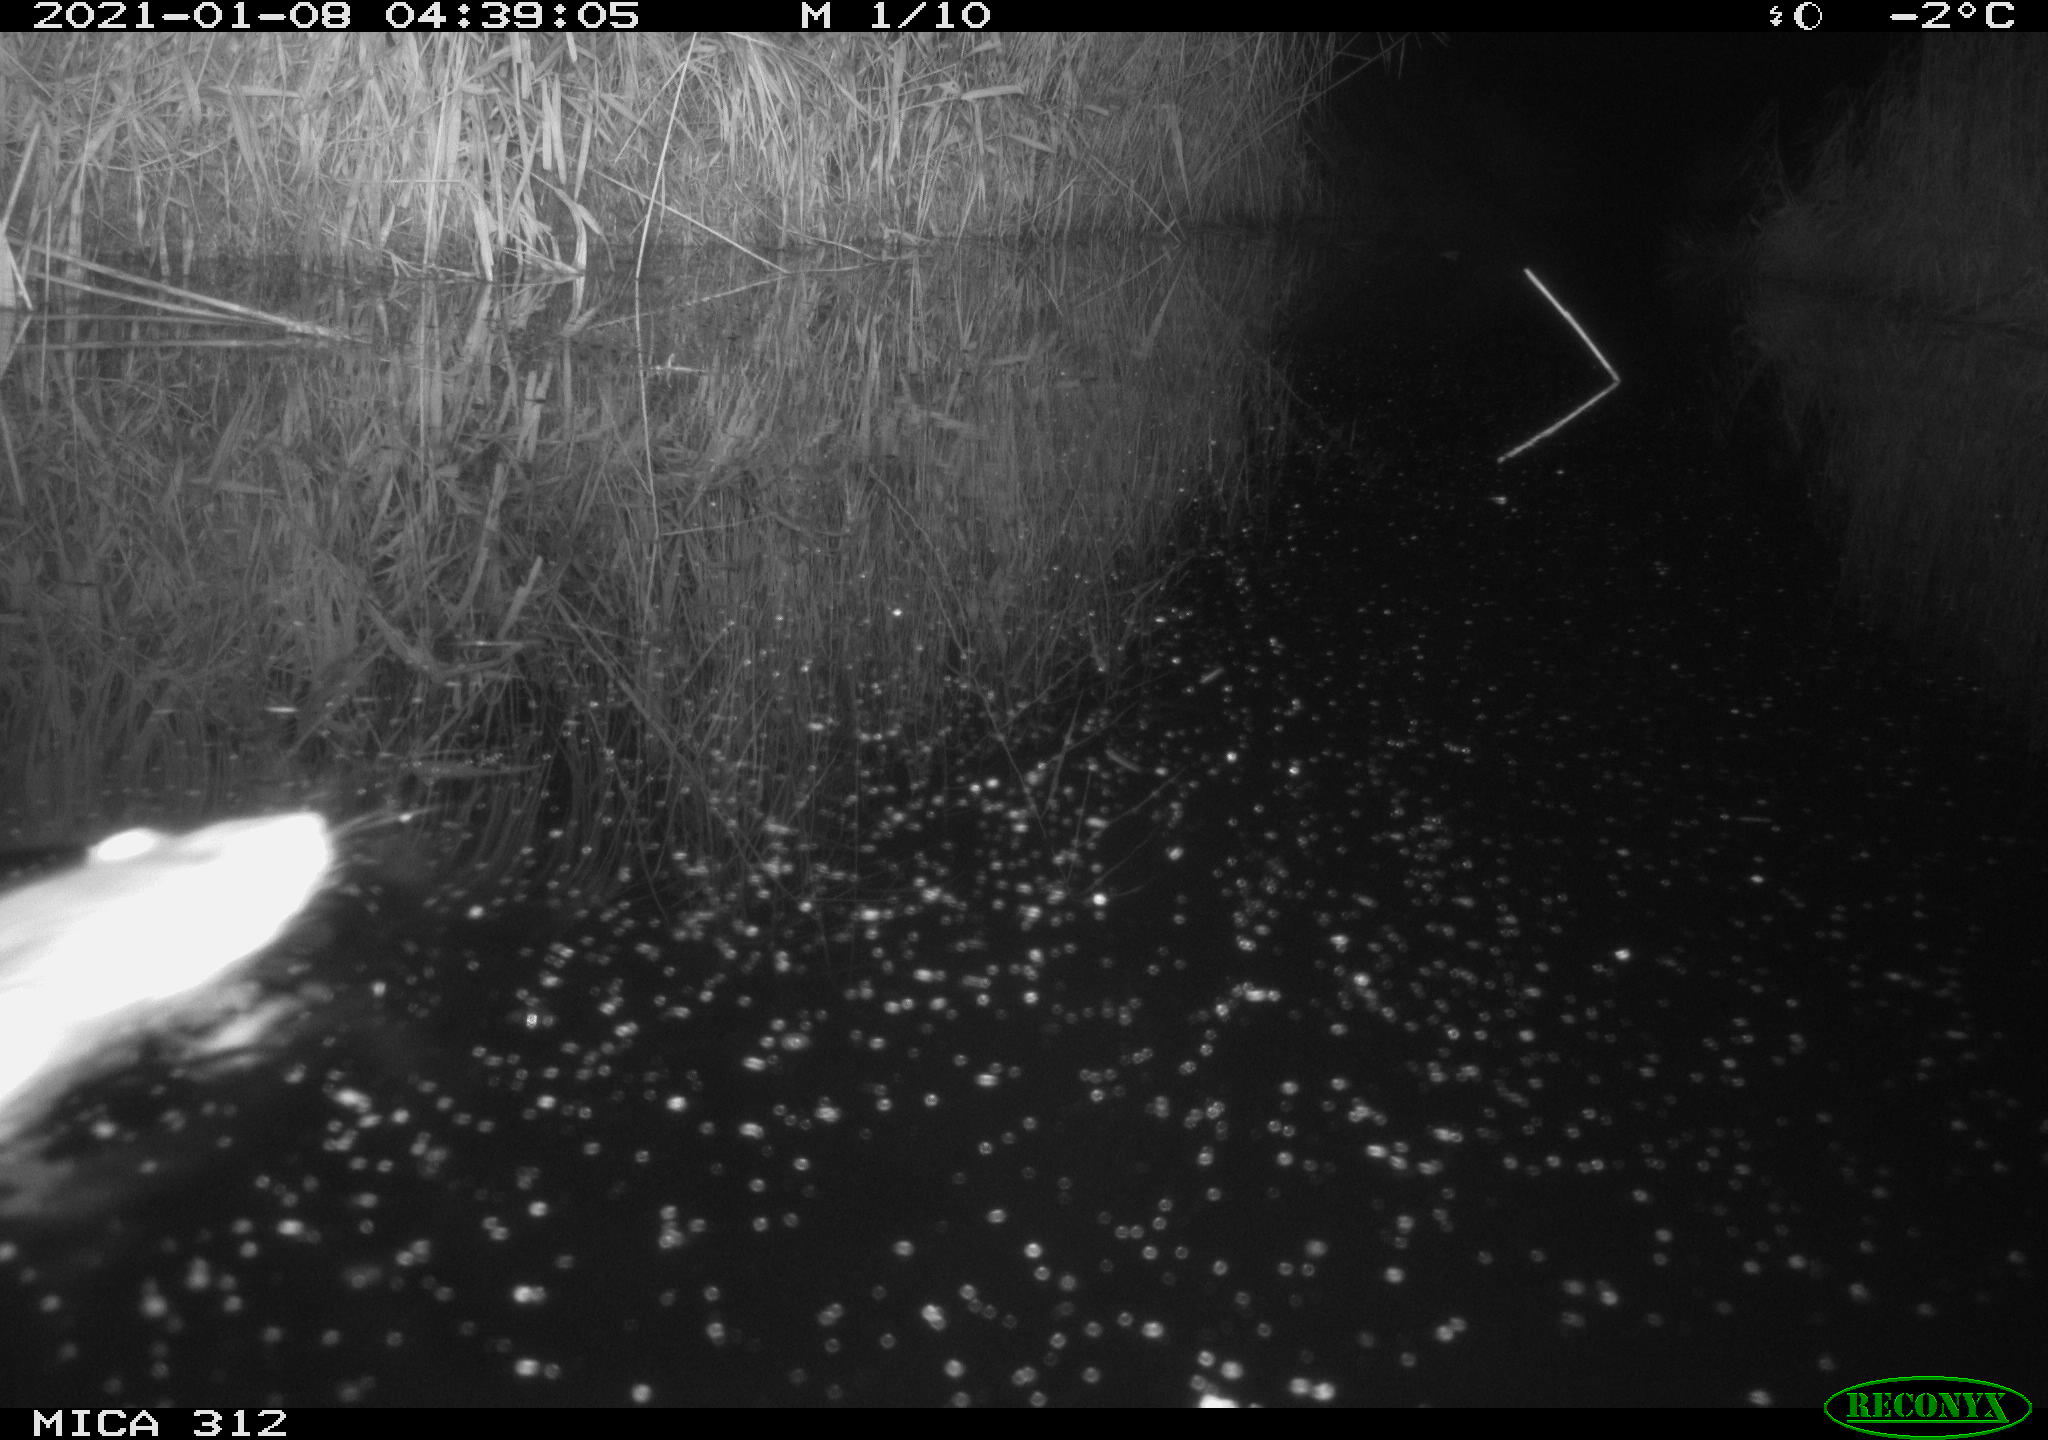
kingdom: Animalia
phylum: Chordata
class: Mammalia
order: Rodentia
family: Muridae
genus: Rattus
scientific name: Rattus norvegicus
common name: Brown rat
